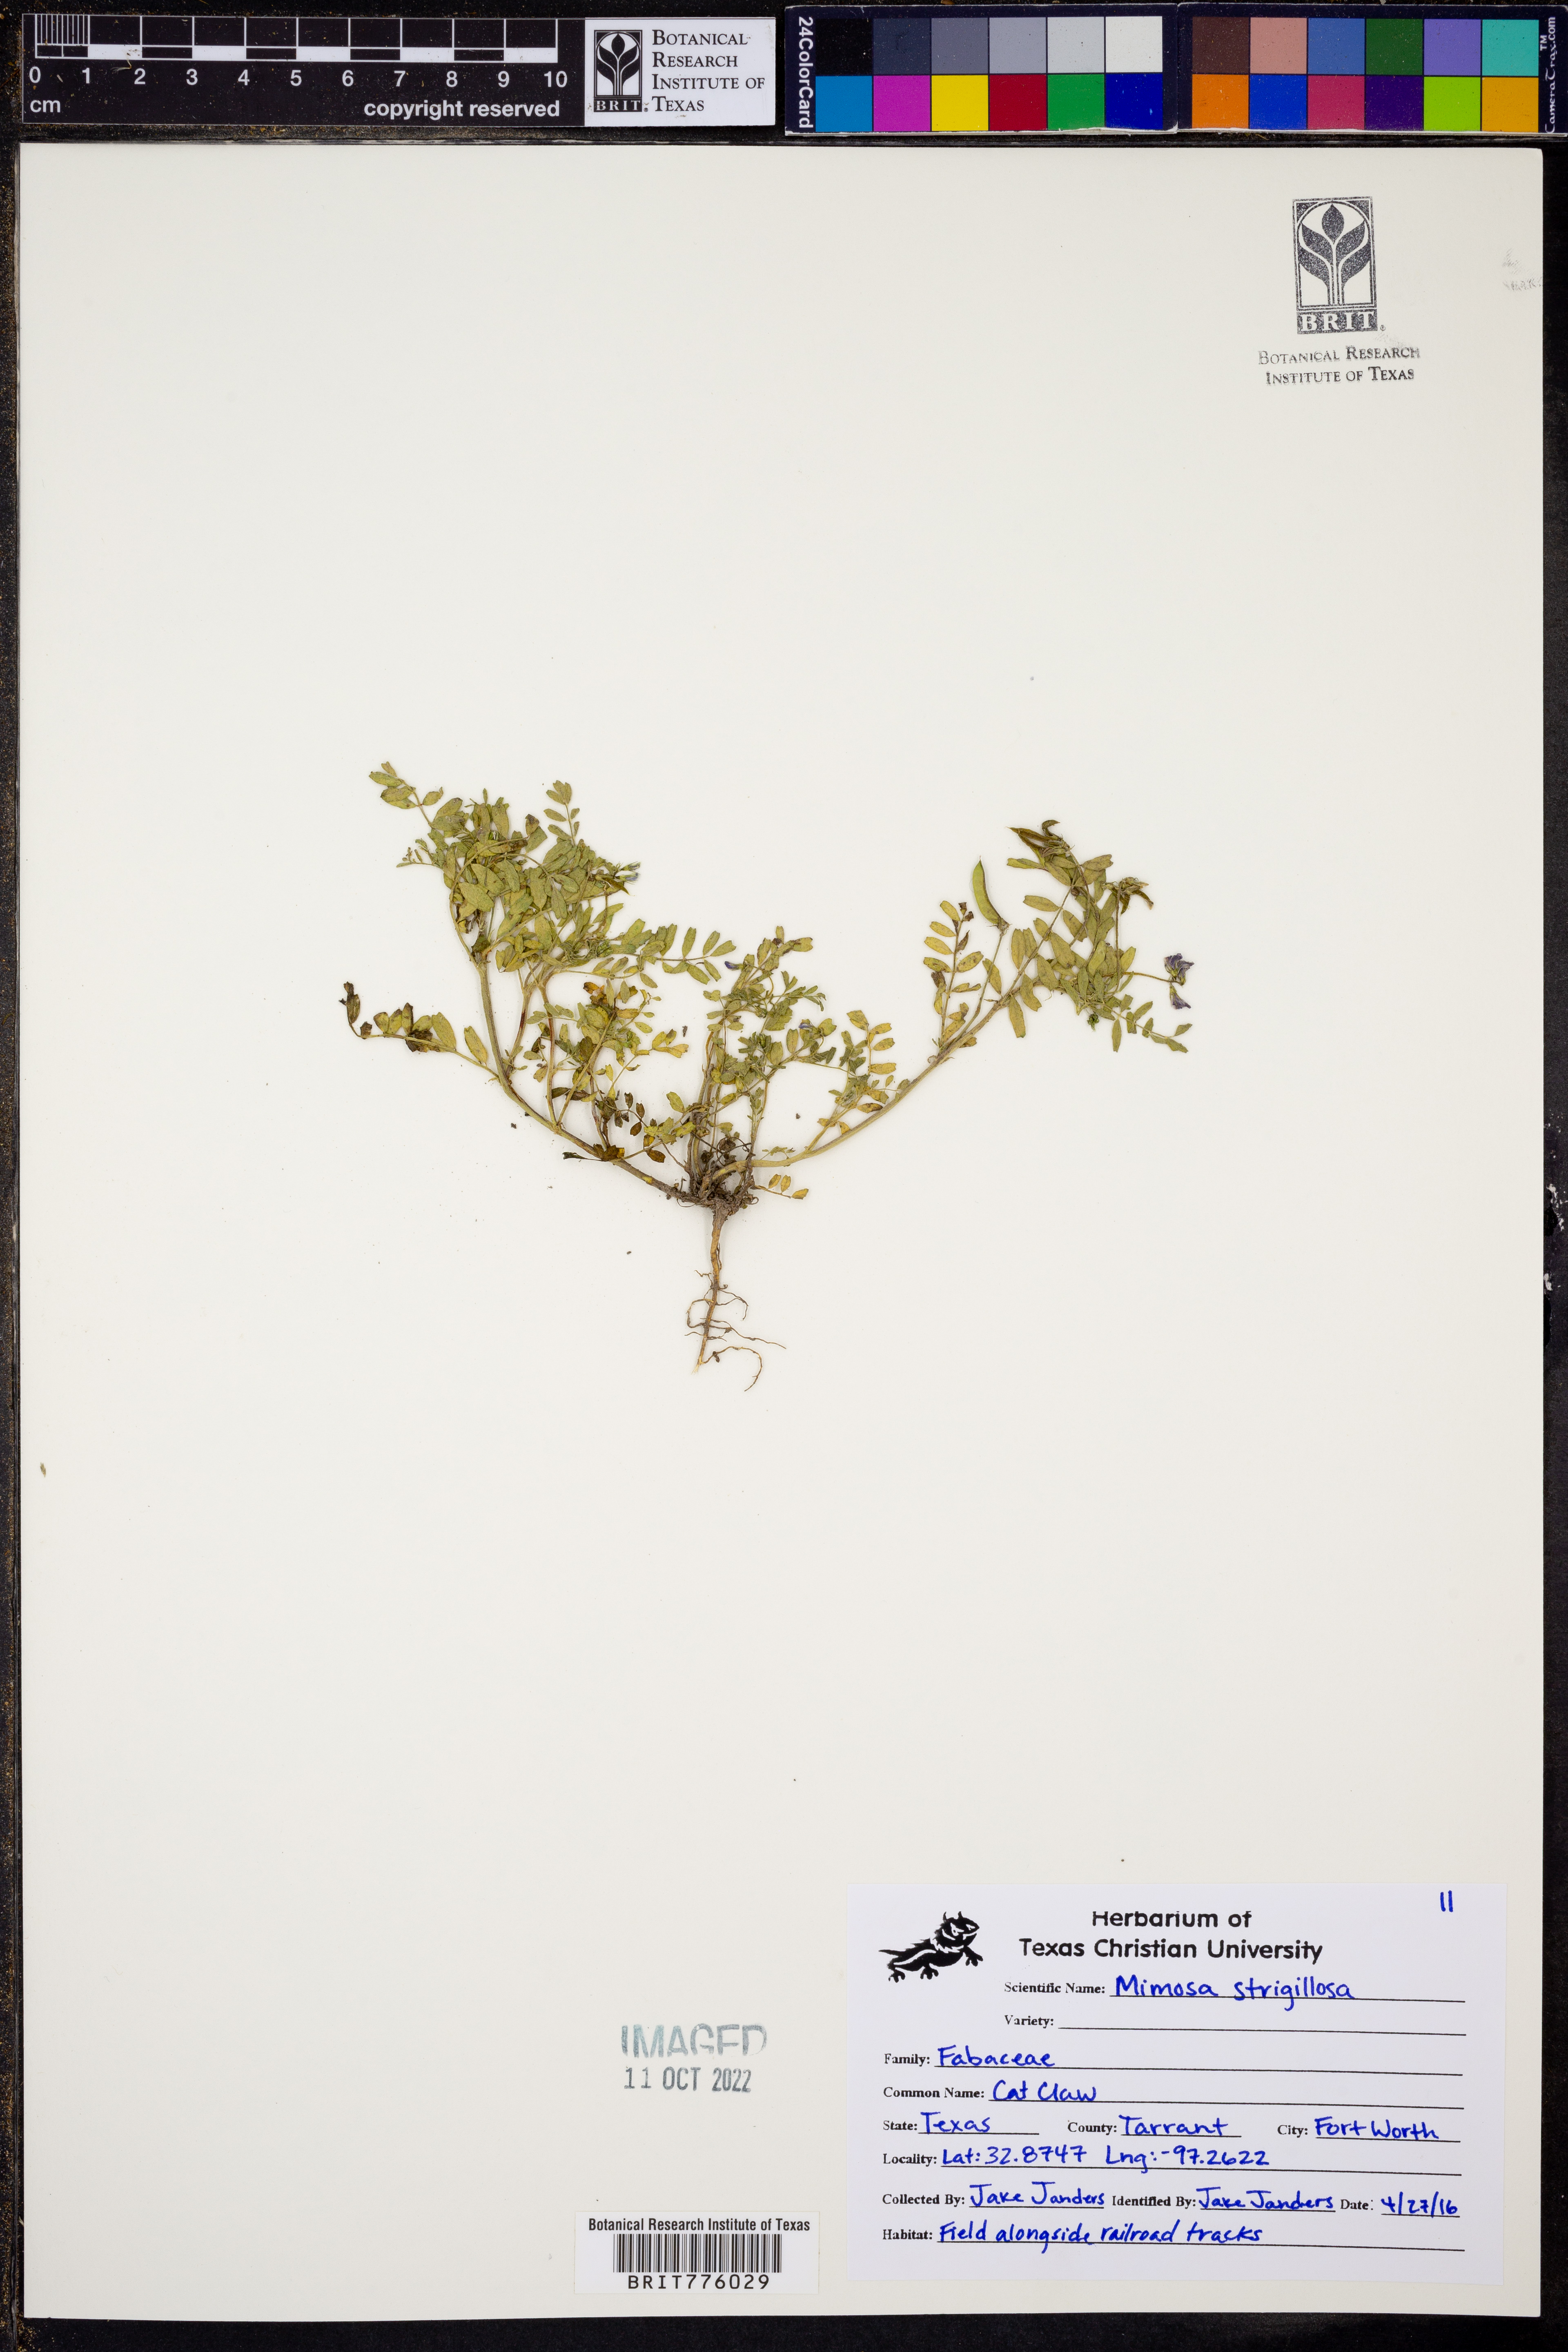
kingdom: Plantae
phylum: Tracheophyta
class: Magnoliopsida
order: Fabales
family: Fabaceae
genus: Mimosa
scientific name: Mimosa strigillosa
